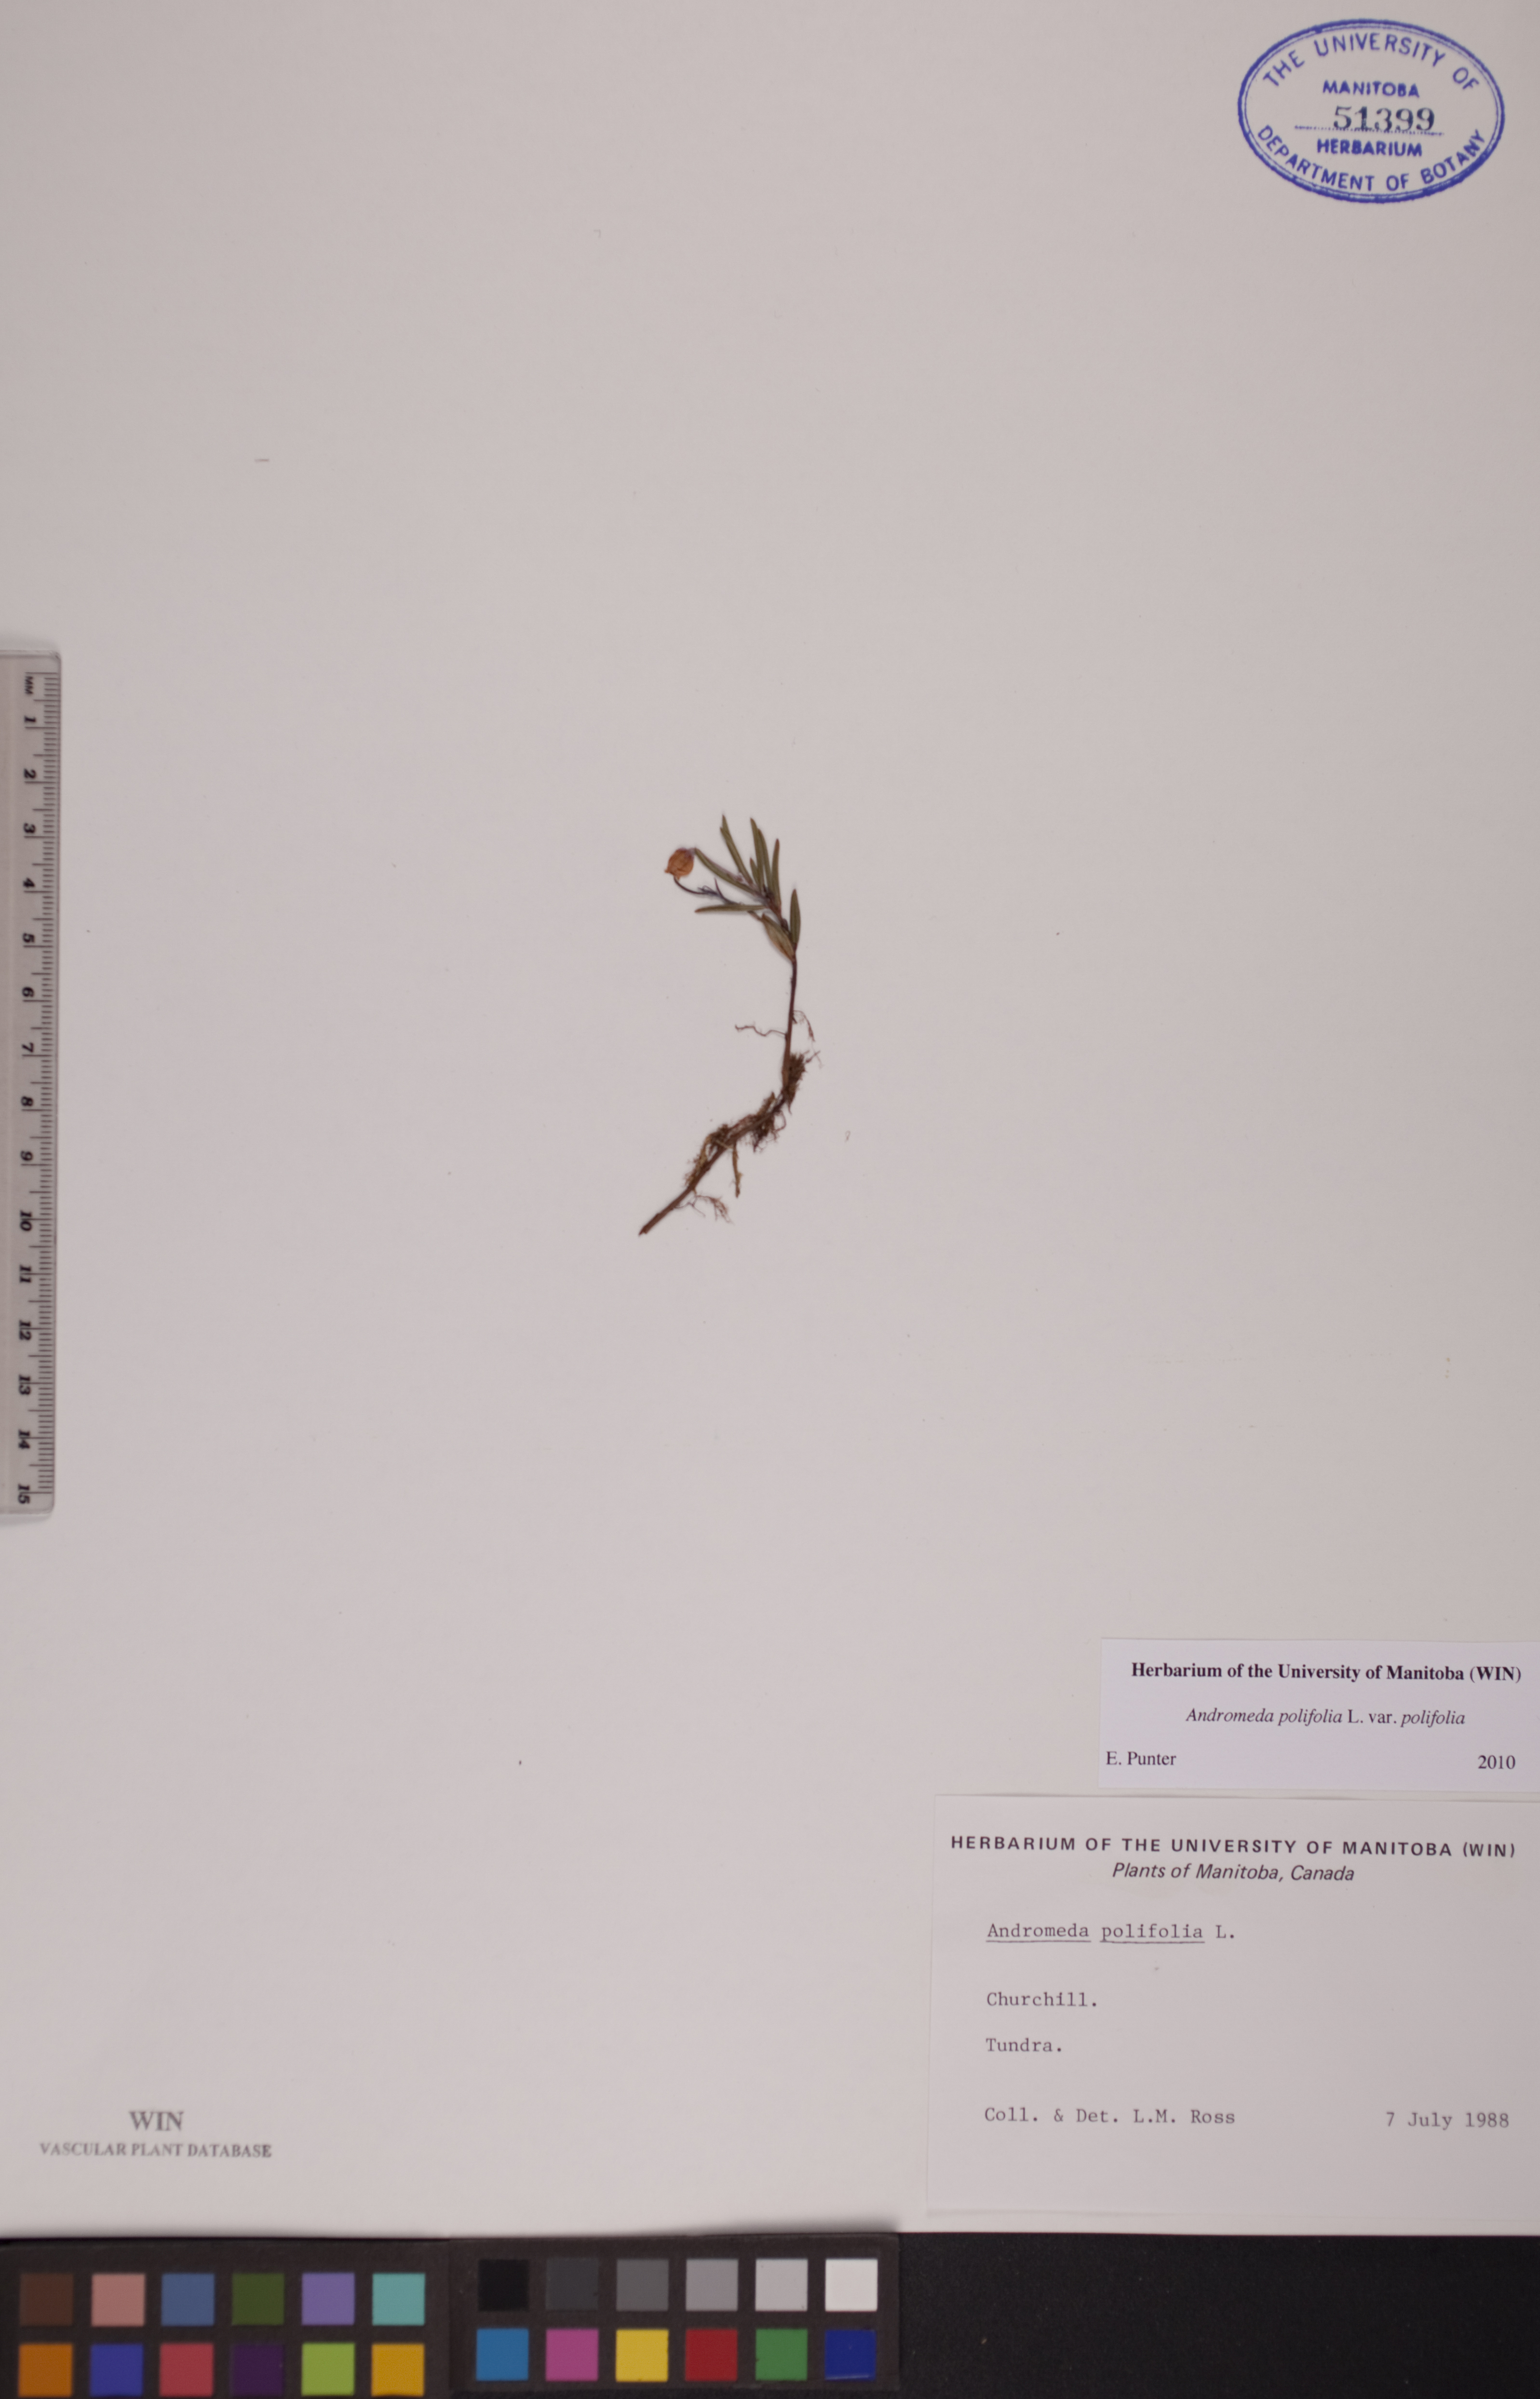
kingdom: Plantae
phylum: Tracheophyta
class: Magnoliopsida
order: Ericales
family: Ericaceae
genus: Andromeda
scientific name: Andromeda polifolia
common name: Bog-rosemary
